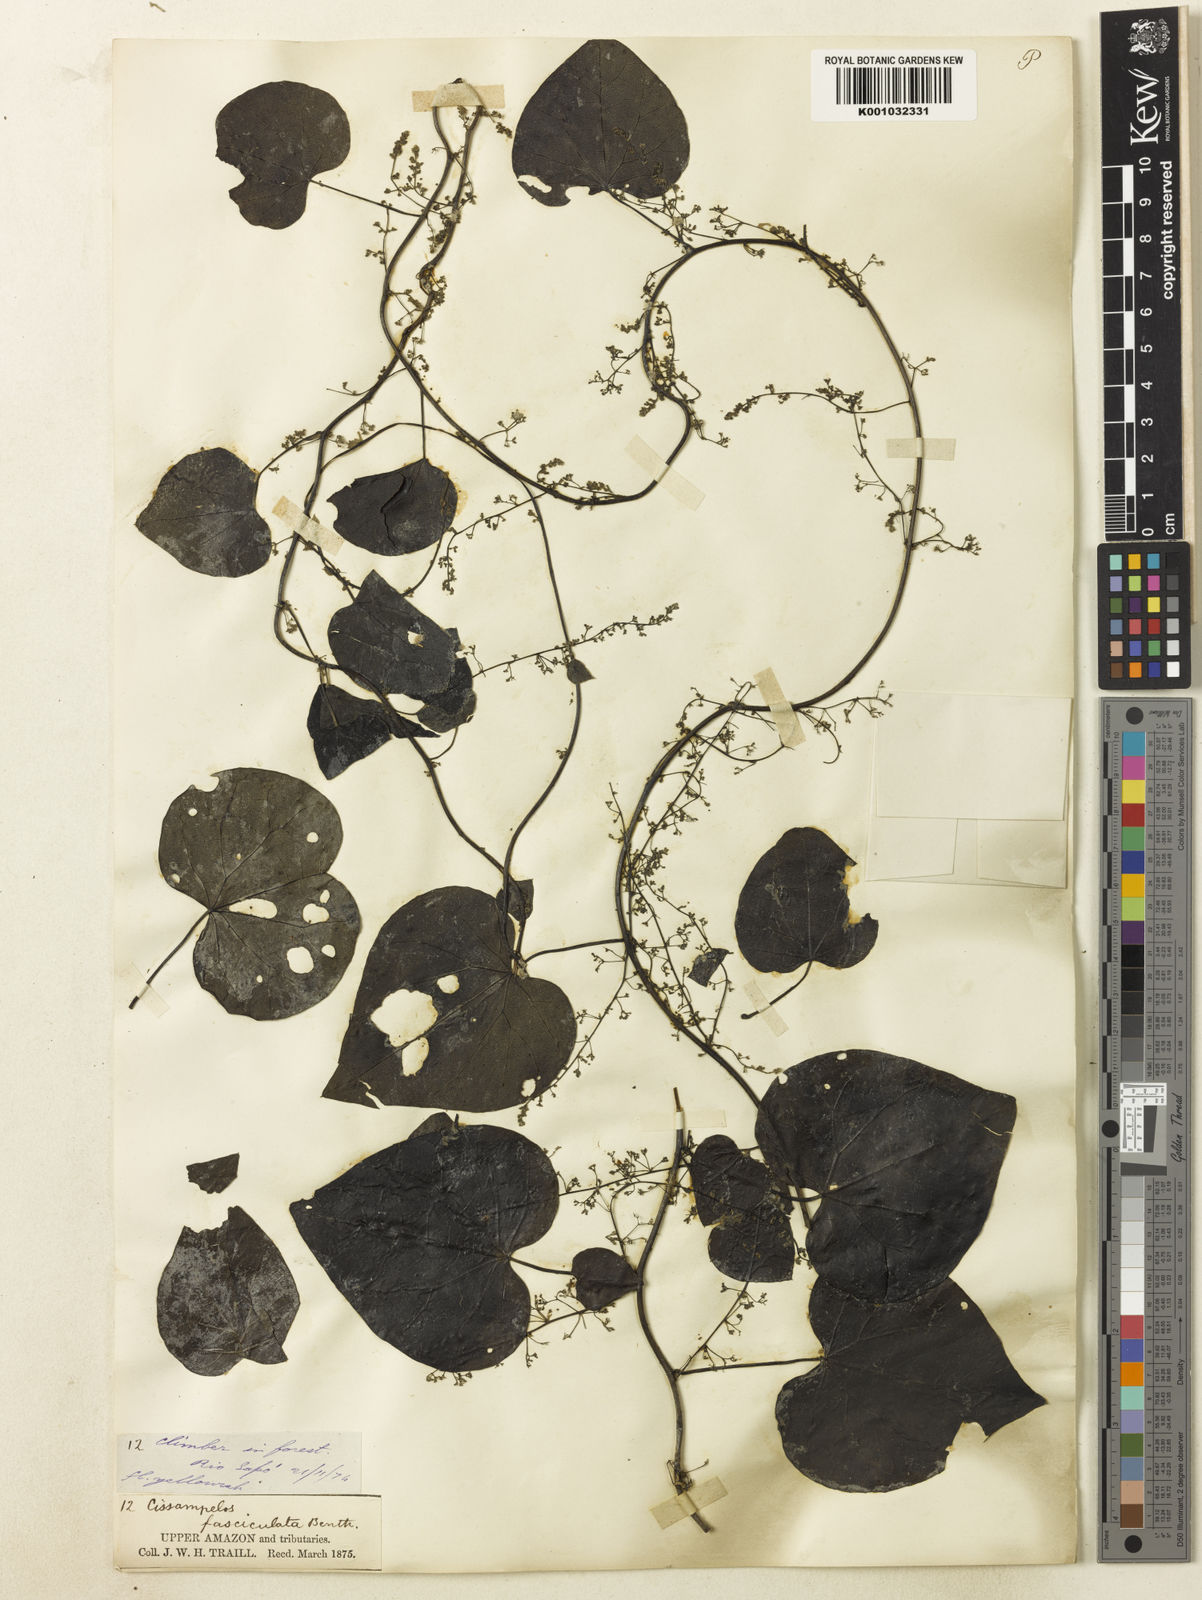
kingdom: Plantae
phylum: Tracheophyta
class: Magnoliopsida
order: Ranunculales
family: Menispermaceae
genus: Cissampelos
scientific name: Cissampelos fasciculata
